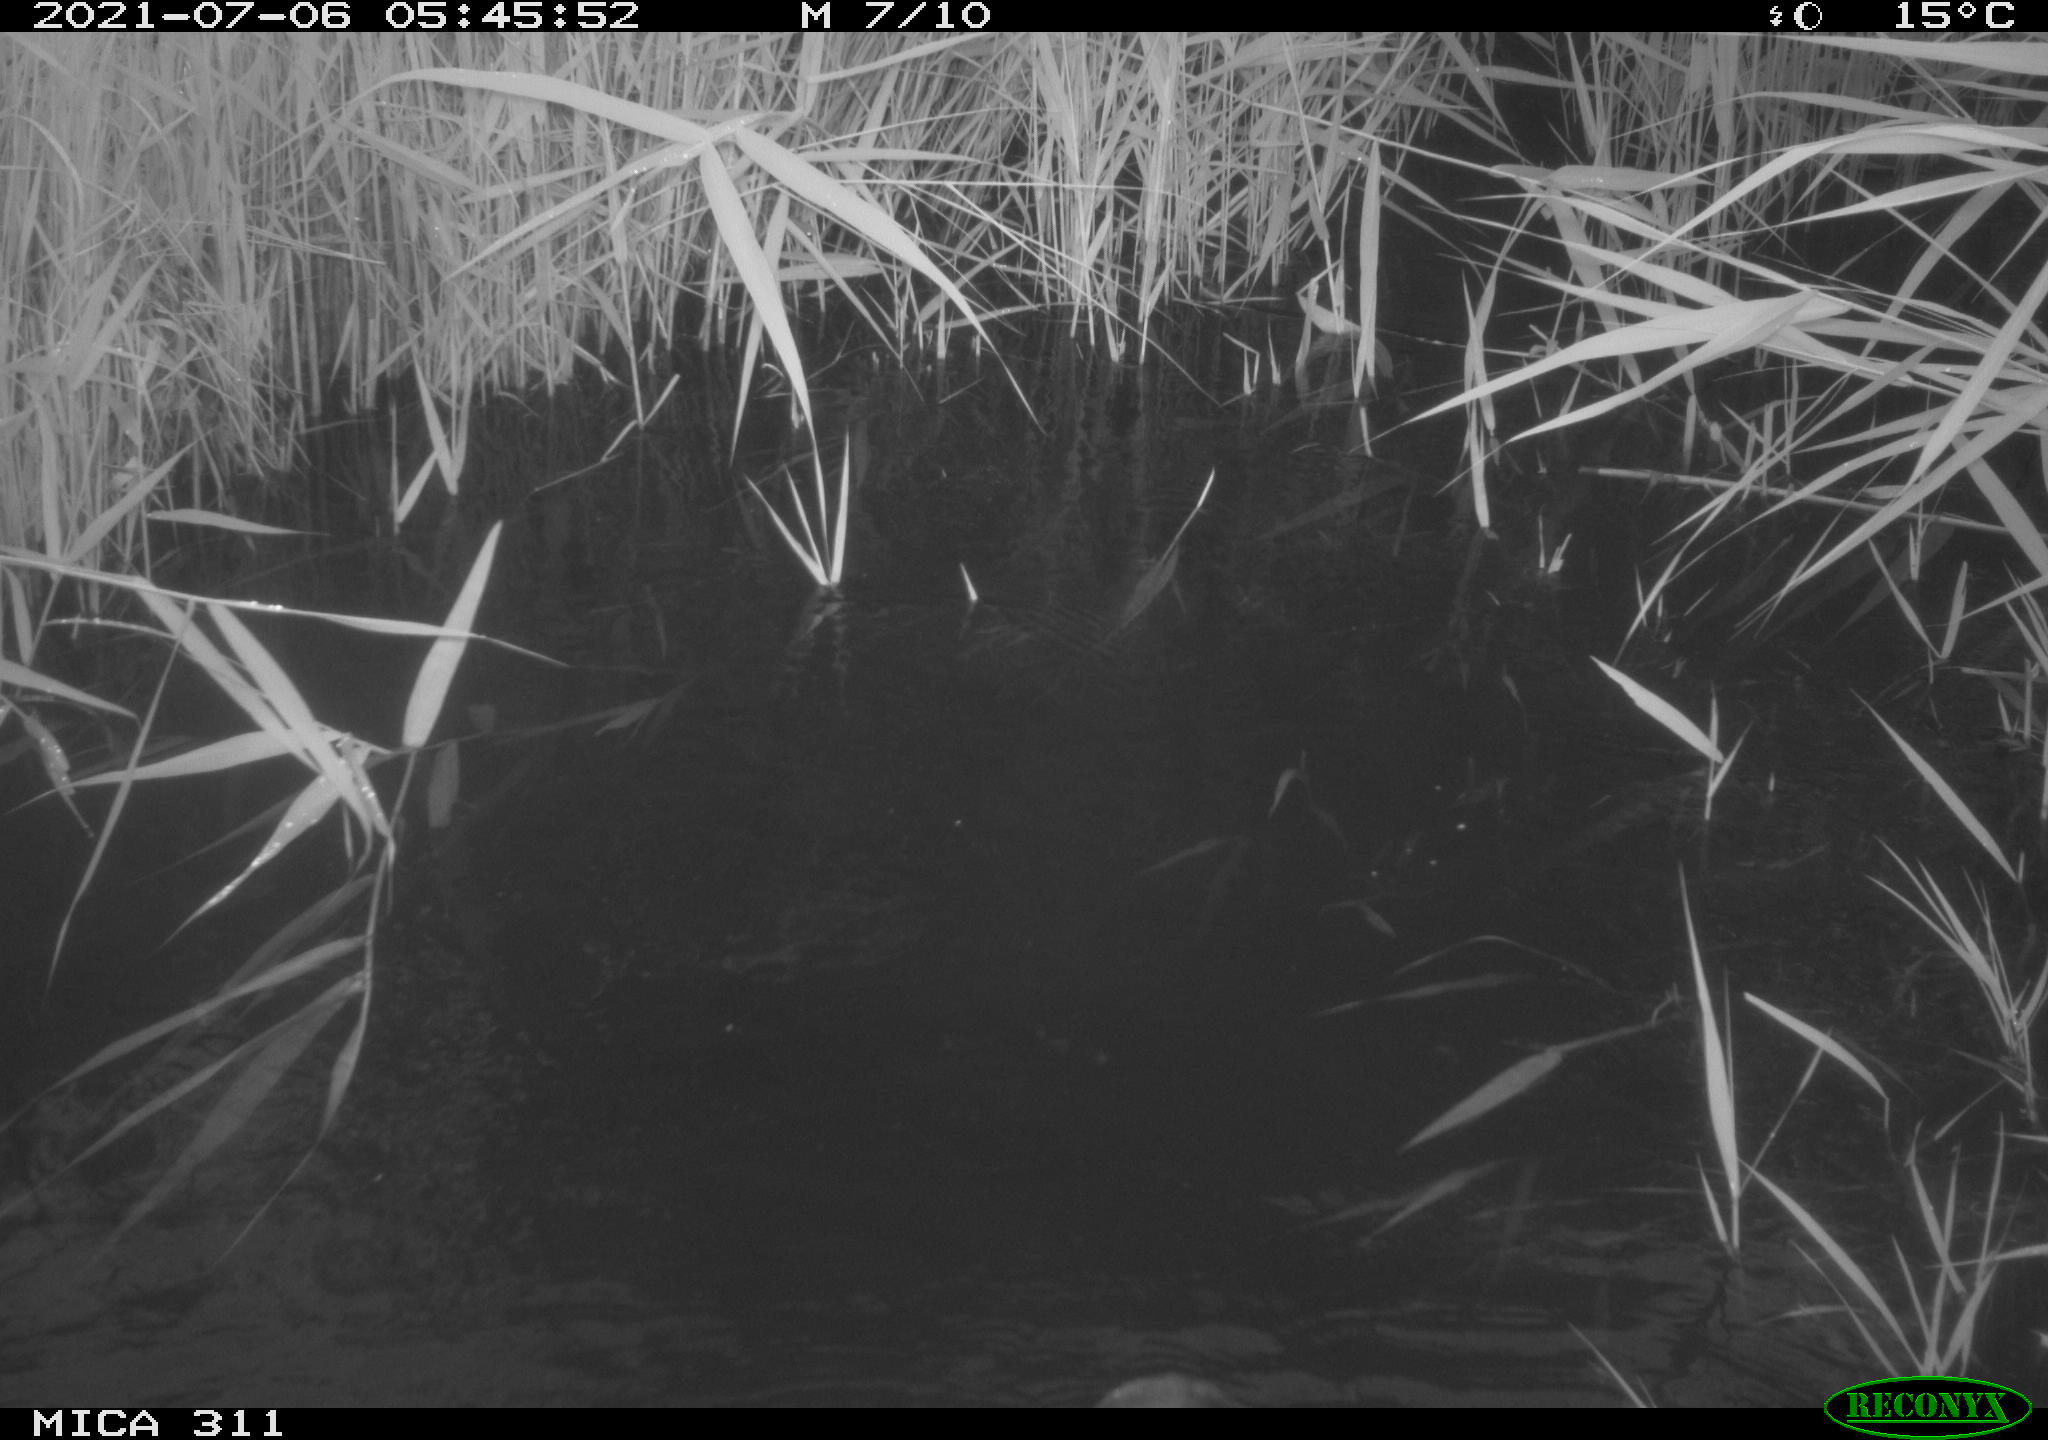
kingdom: Animalia
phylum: Chordata
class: Aves
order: Anseriformes
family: Anatidae
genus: Anas
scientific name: Anas
